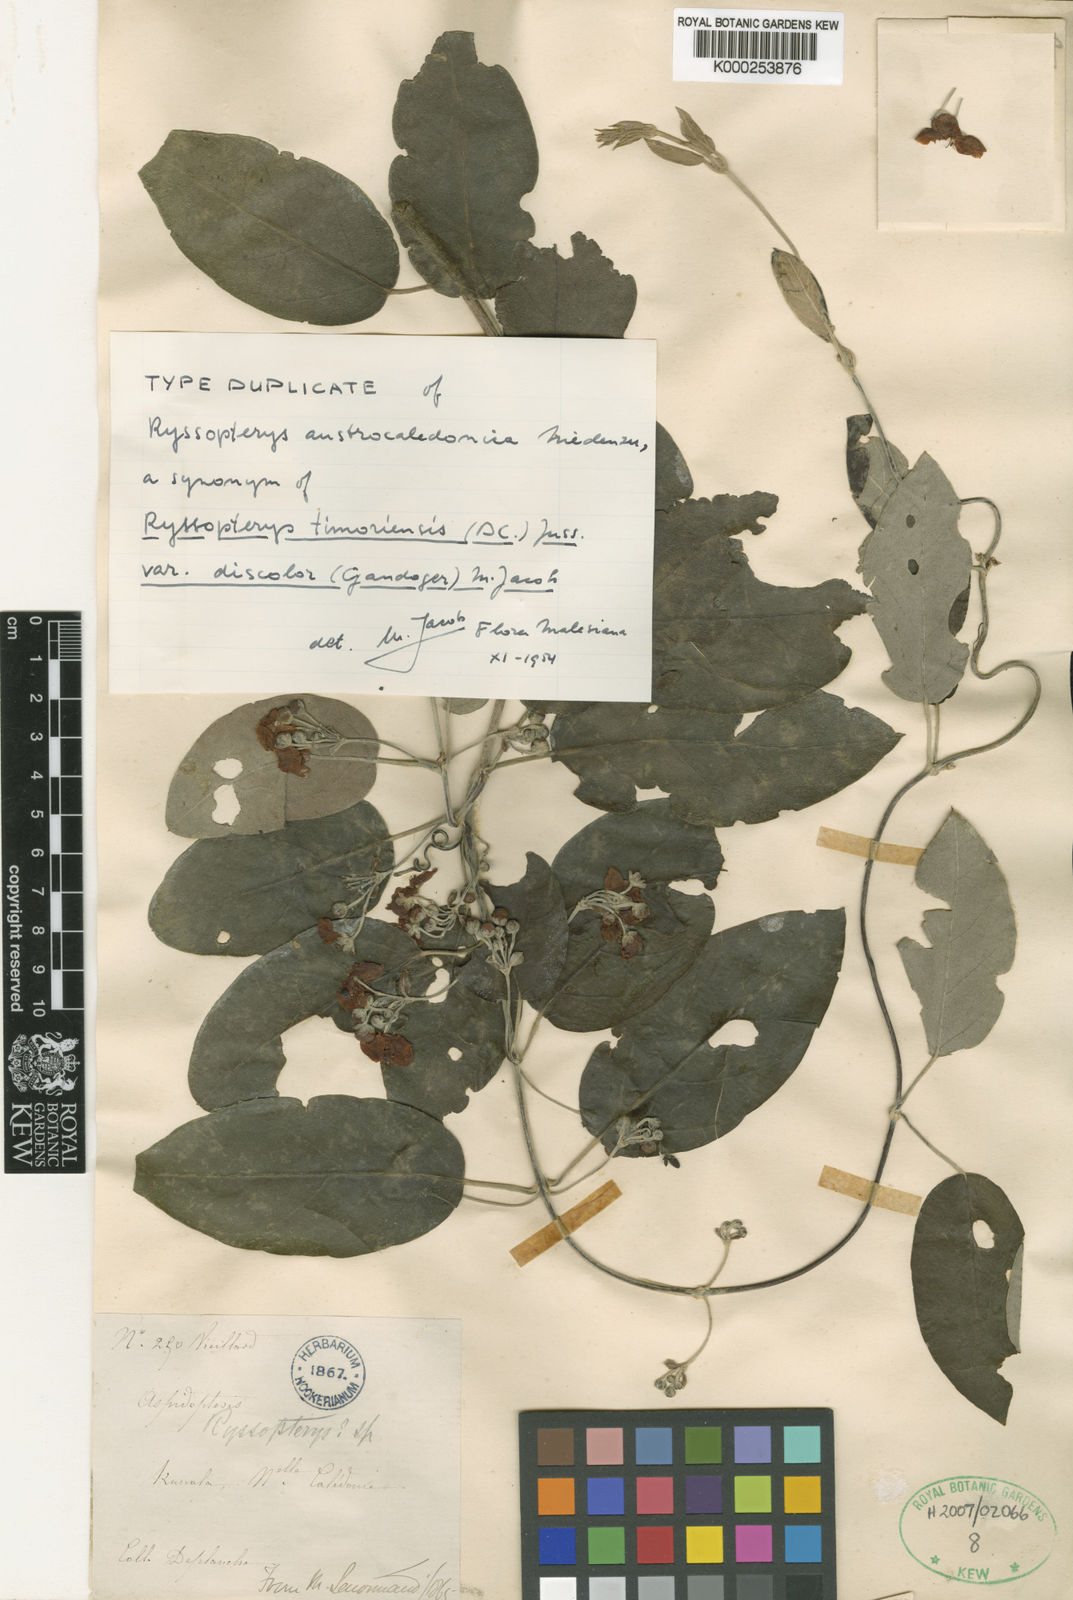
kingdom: Plantae
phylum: Tracheophyta
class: Magnoliopsida
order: Malpighiales
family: Malpighiaceae
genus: Stigmaphyllon
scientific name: Stigmaphyllon discolor
